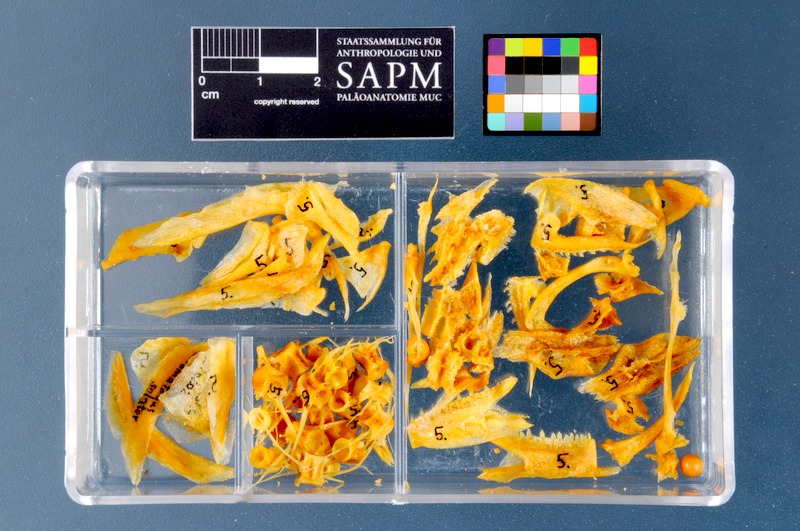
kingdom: Animalia
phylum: Chordata
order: Perciformes
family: Pomatomidae
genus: Pomatomus
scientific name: Pomatomus saltatrix
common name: Bluefish
